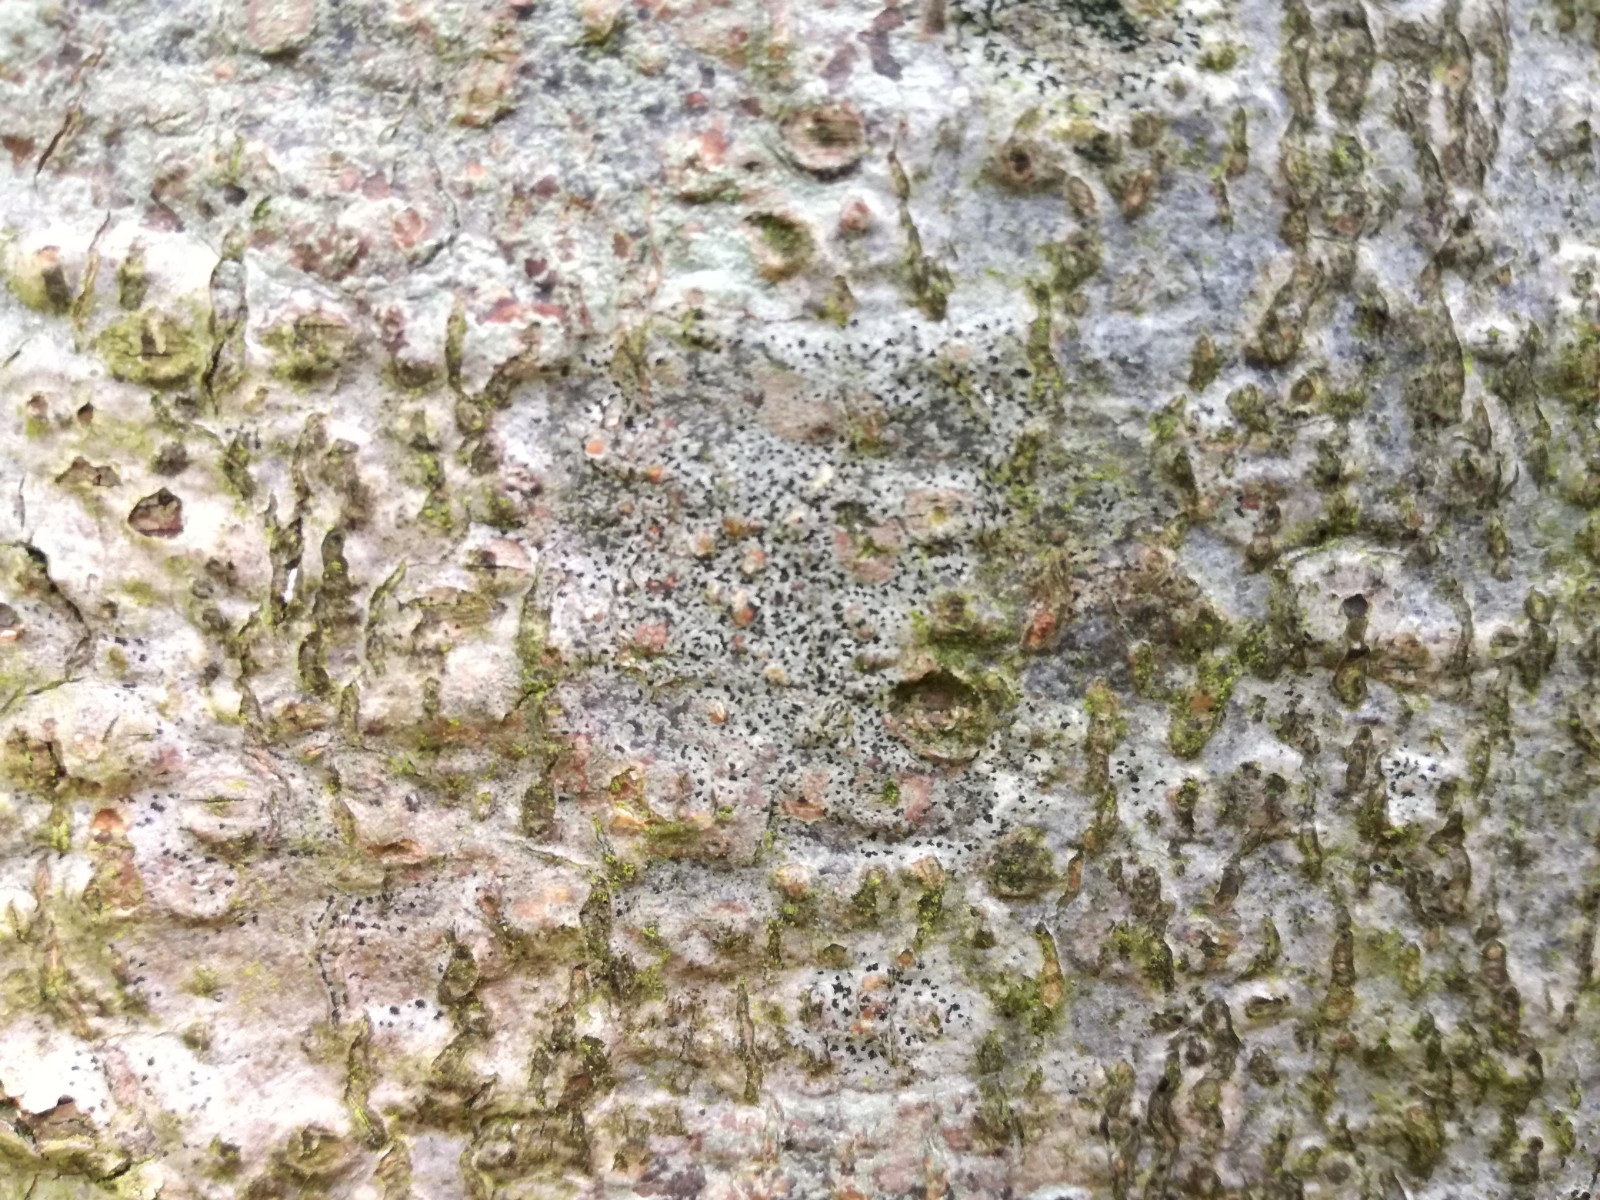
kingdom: Fungi
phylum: Ascomycota
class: Arthoniomycetes
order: Arthoniales
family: Arthoniaceae
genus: Arthonia
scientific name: Arthonia radiata
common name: stjerne-pletlav
